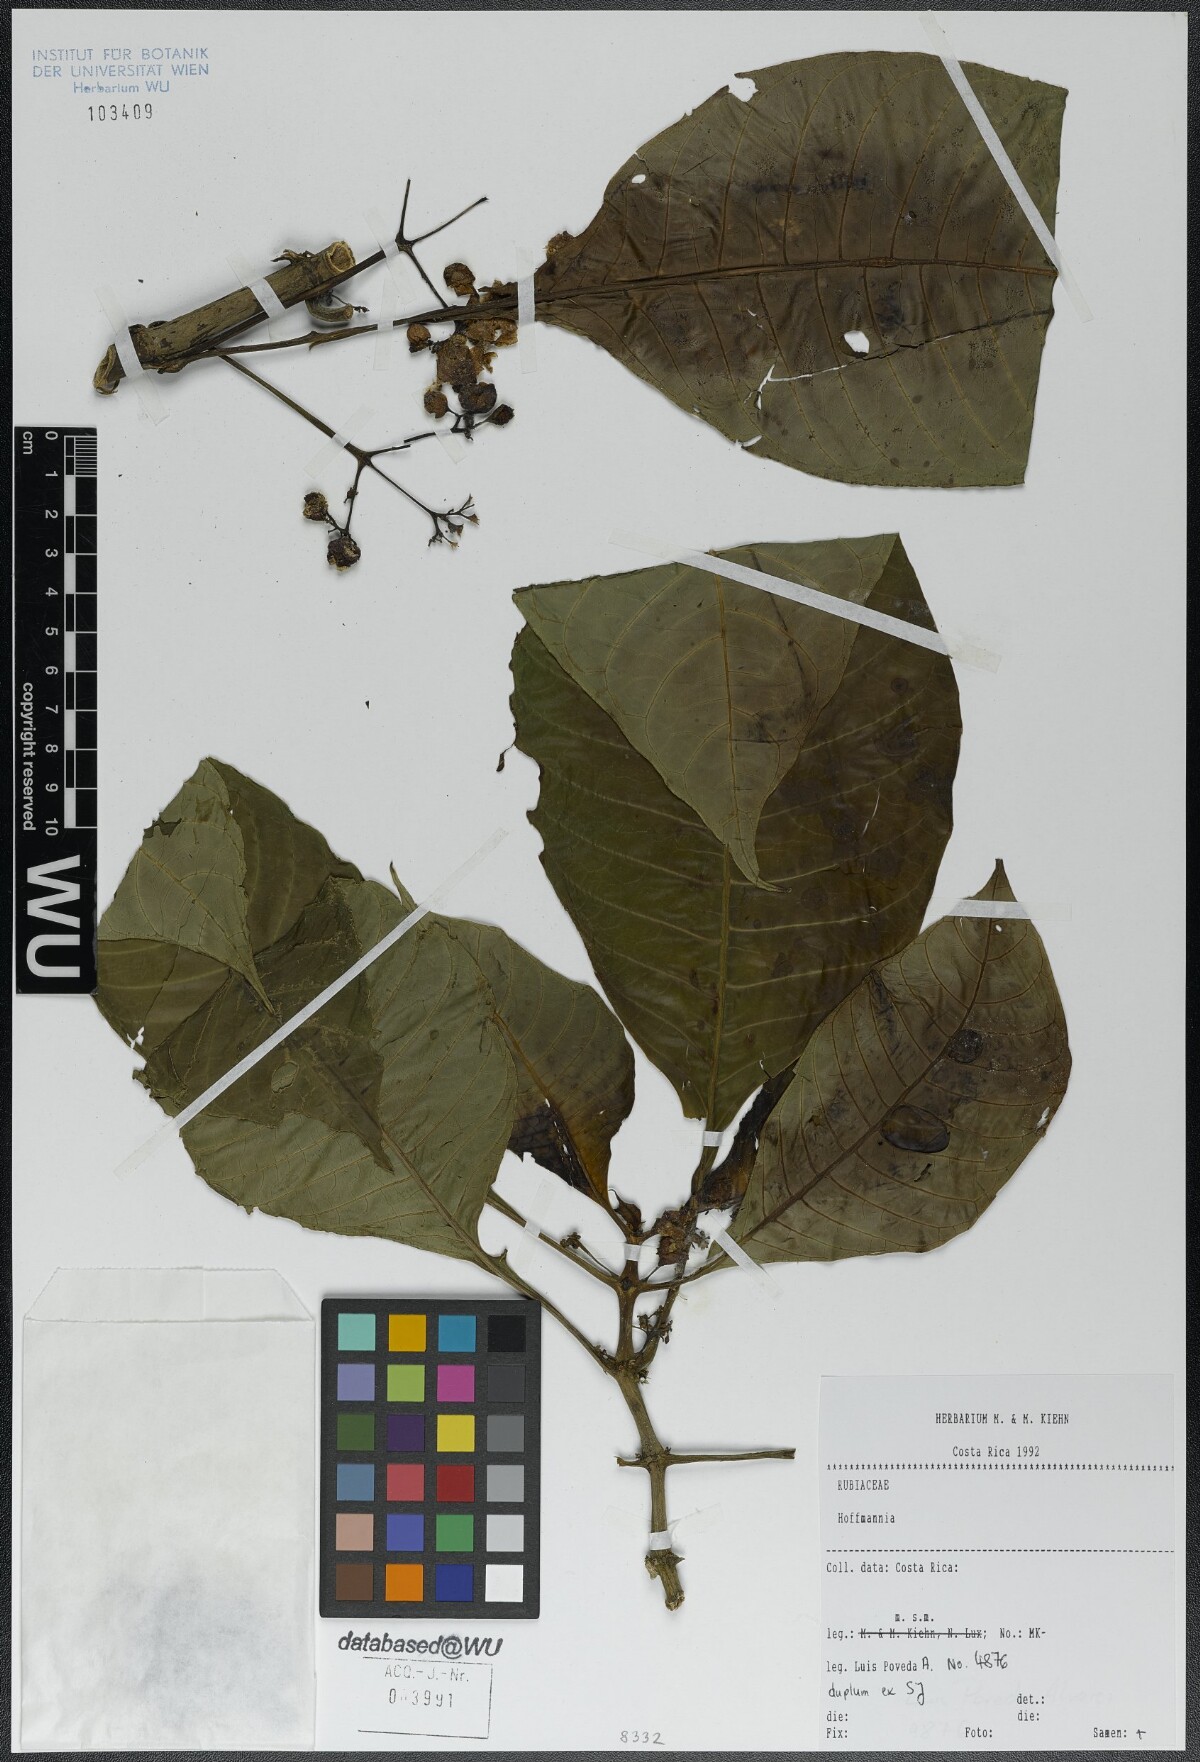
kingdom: Plantae
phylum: Tracheophyta
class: Magnoliopsida
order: Gentianales
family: Rubiaceae
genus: Hoffmannia
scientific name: Hoffmannia
